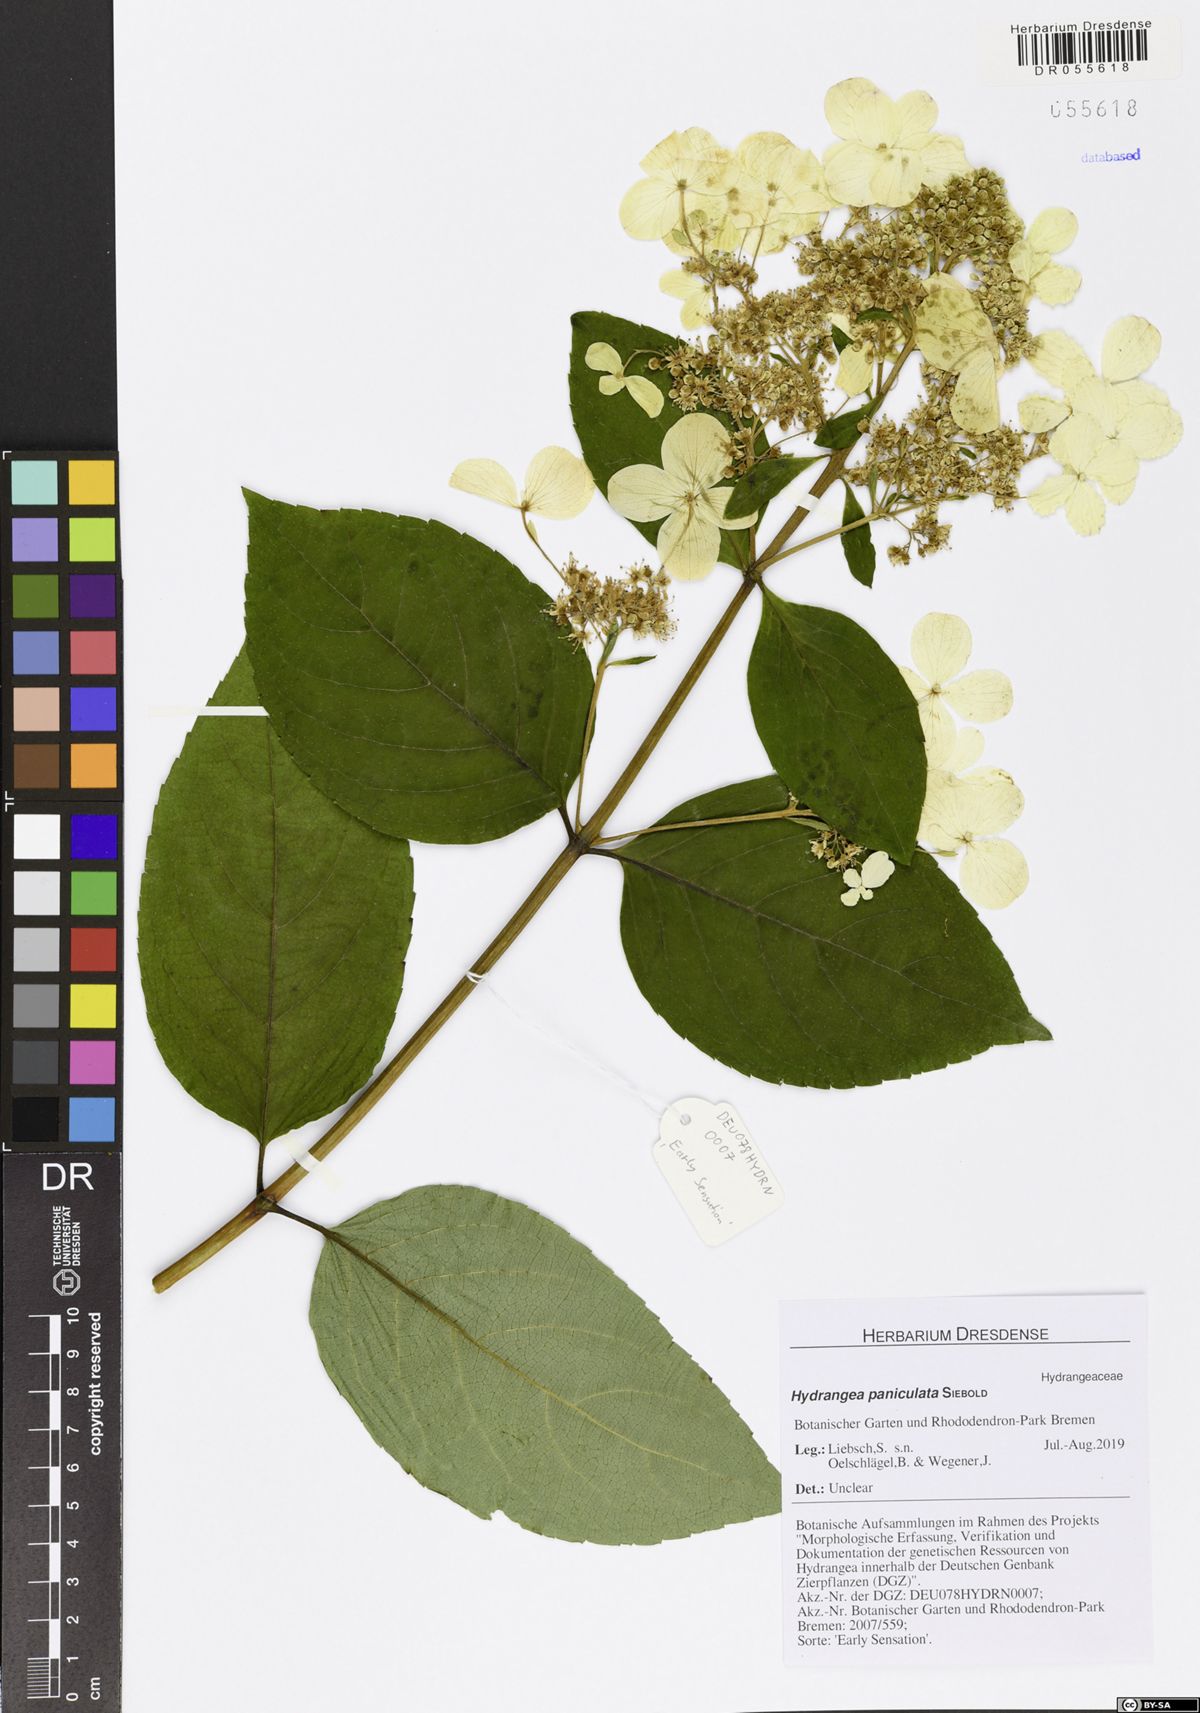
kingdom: Plantae
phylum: Tracheophyta
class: Magnoliopsida
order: Cornales
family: Hydrangeaceae
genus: Hydrangea
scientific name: Hydrangea paniculata
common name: Panicled hydrangea
